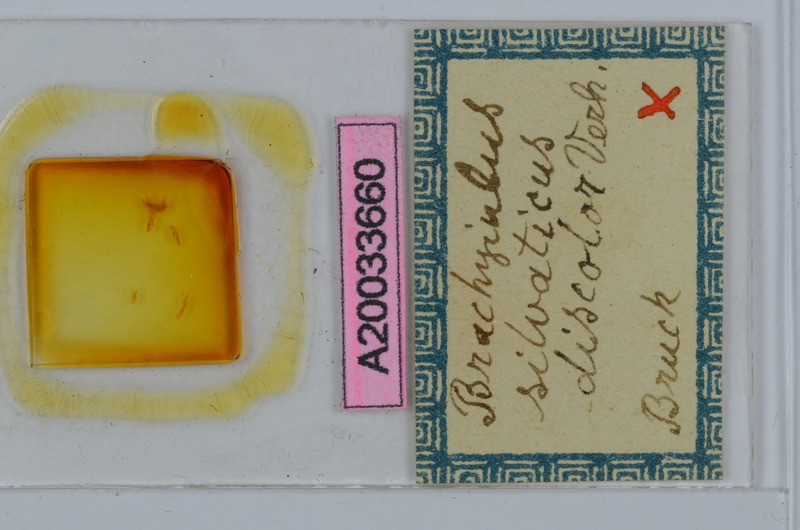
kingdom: Animalia
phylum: Arthropoda
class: Diplopoda
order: Julida
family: Julidae
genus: Megaphyllum
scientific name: Megaphyllum silvaticum
